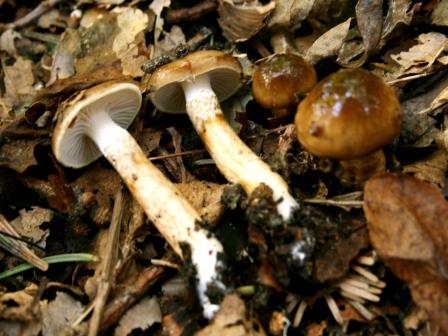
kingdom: Fungi
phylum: Basidiomycota
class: Agaricomycetes
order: Agaricales
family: Hygrophoraceae
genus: Hygrophorus
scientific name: Hygrophorus glutinifer
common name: tvefarvet sneglehat
